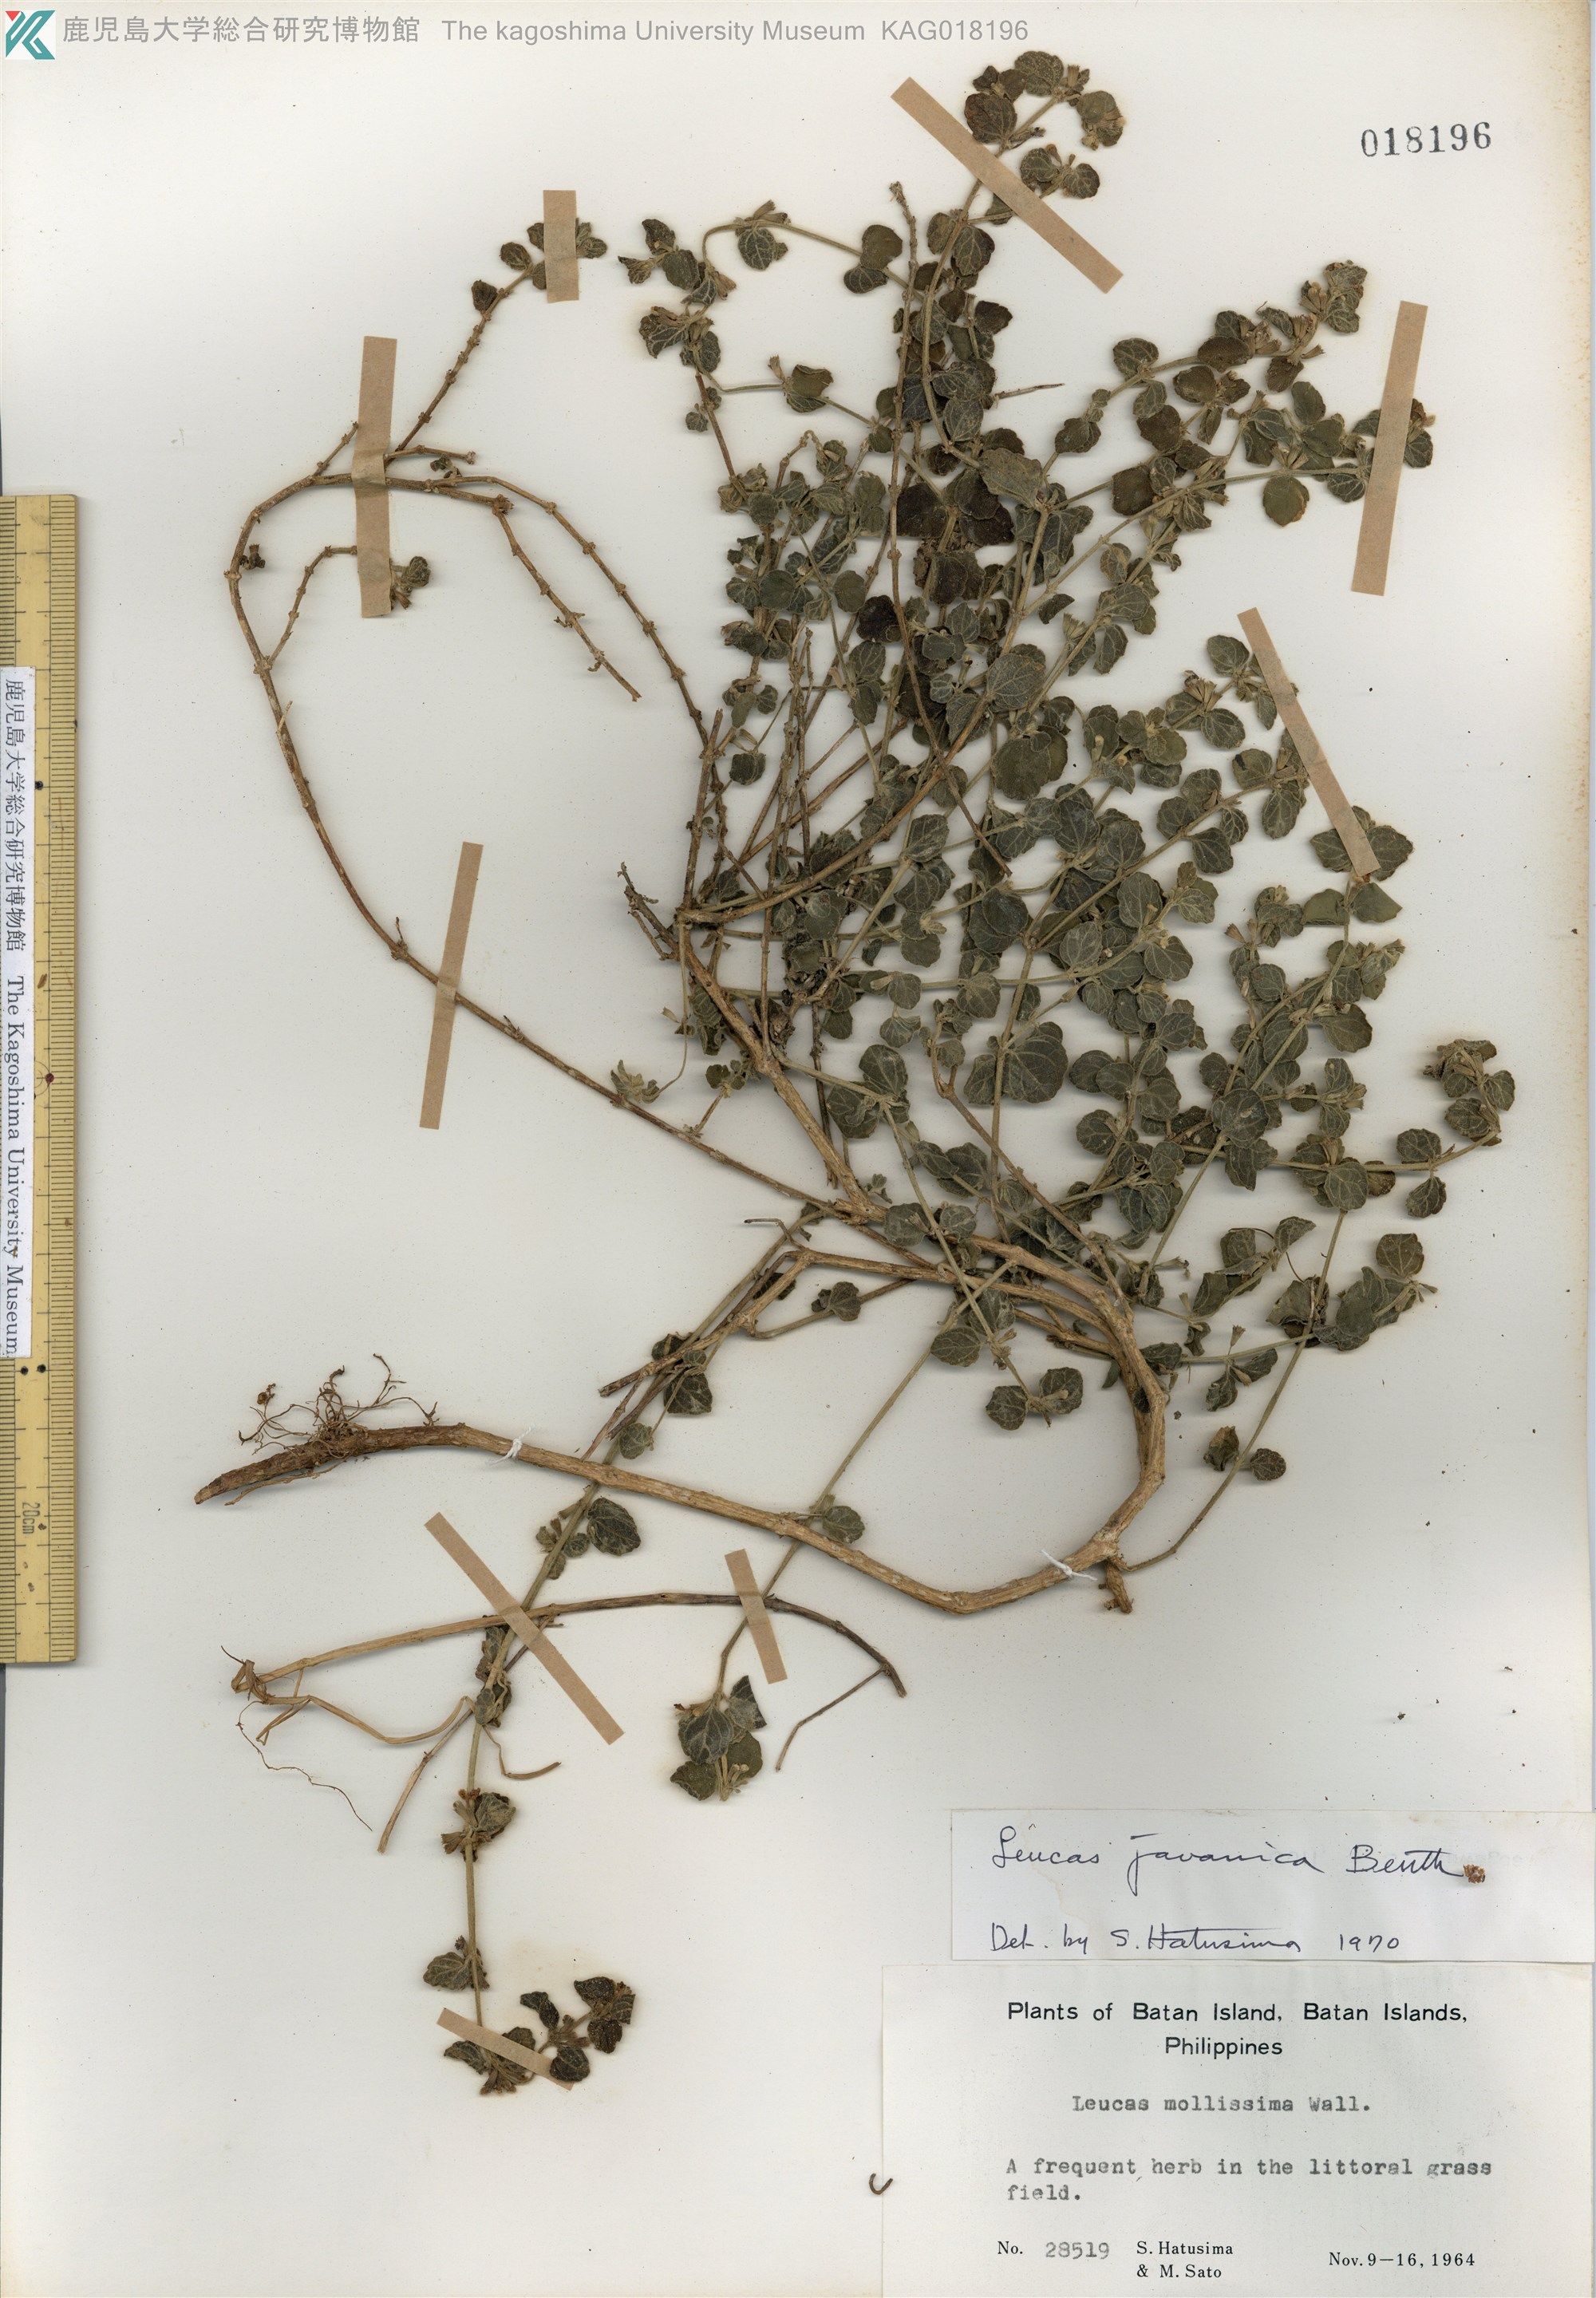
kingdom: Plantae
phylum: Tracheophyta
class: Magnoliopsida
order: Lamiales
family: Lamiaceae
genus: Leucas
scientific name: Leucas chinensis
